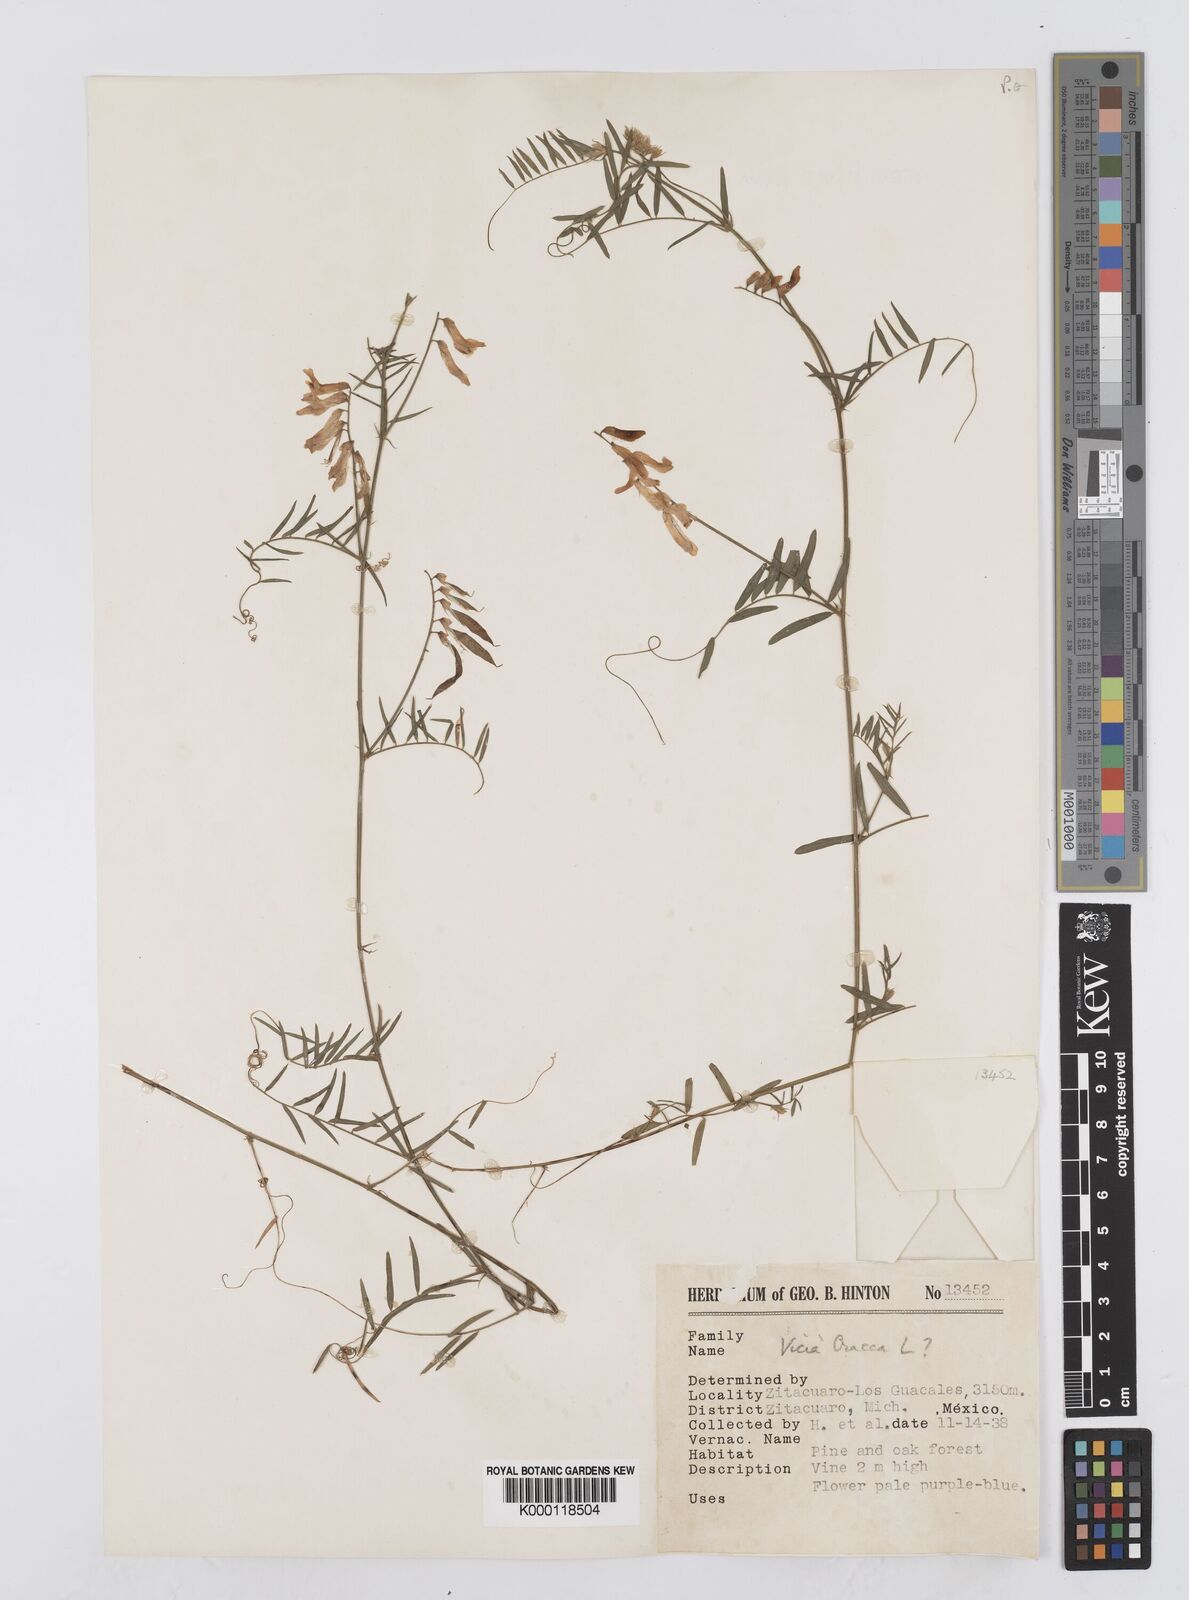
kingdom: Plantae
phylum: Tracheophyta
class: Magnoliopsida
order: Fabales
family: Fabaceae
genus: Vicia
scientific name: Vicia cracca
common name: Bird vetch
